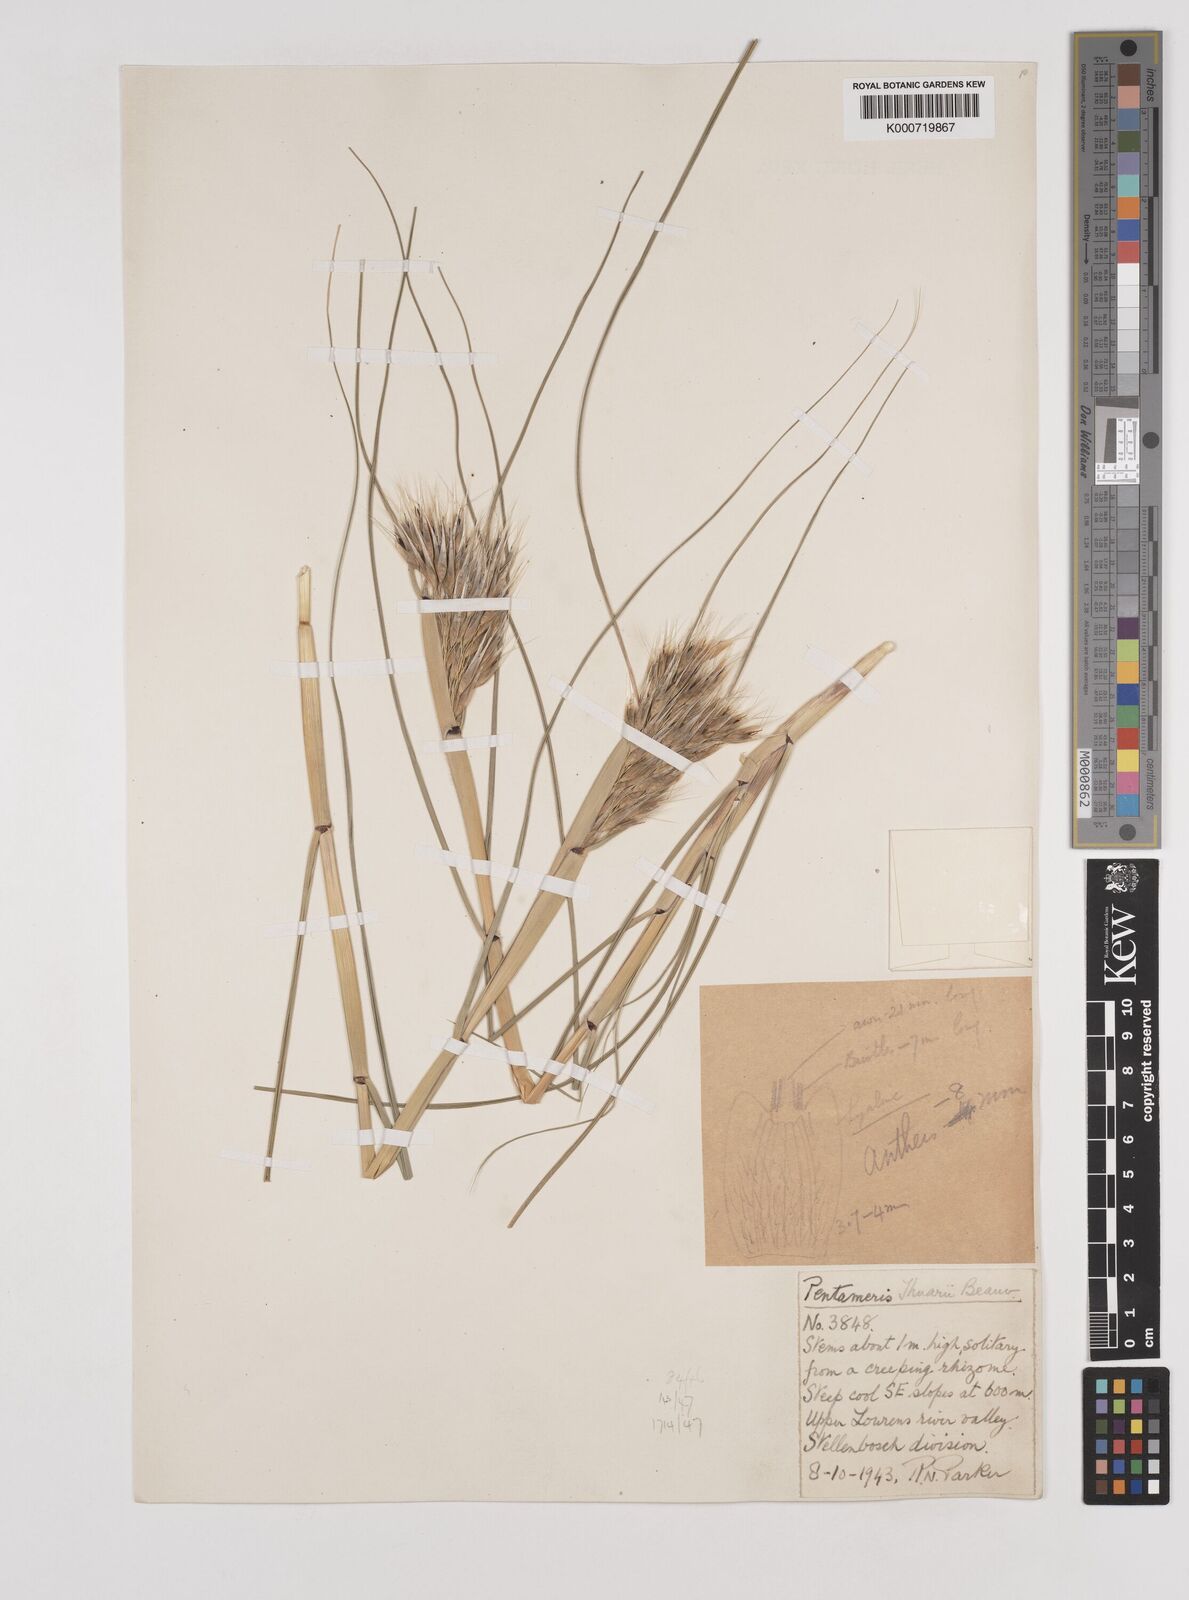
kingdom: Plantae
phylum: Tracheophyta
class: Liliopsida
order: Poales
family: Poaceae
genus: Pentameris
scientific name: Pentameris thuarii
